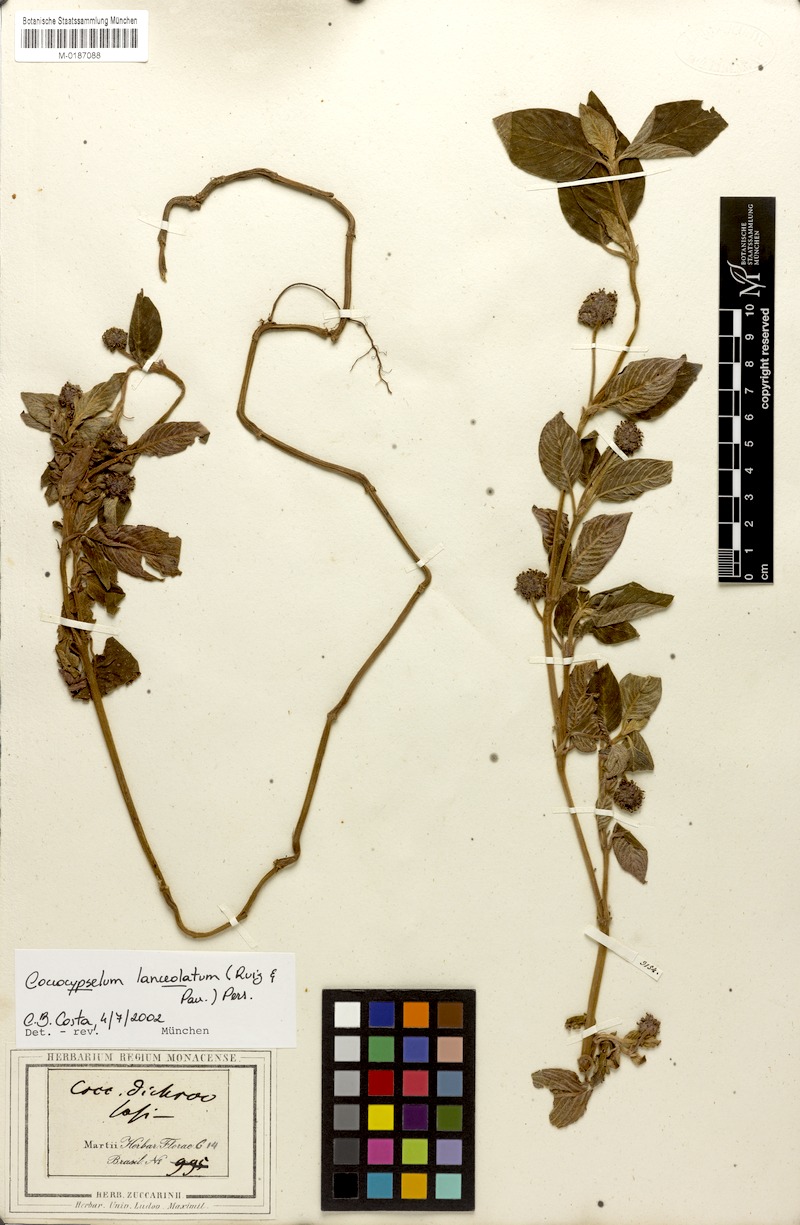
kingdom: Plantae
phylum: Tracheophyta
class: Magnoliopsida
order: Gentianales
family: Rubiaceae
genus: Coccocypselum
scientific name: Coccocypselum lanceolatum
